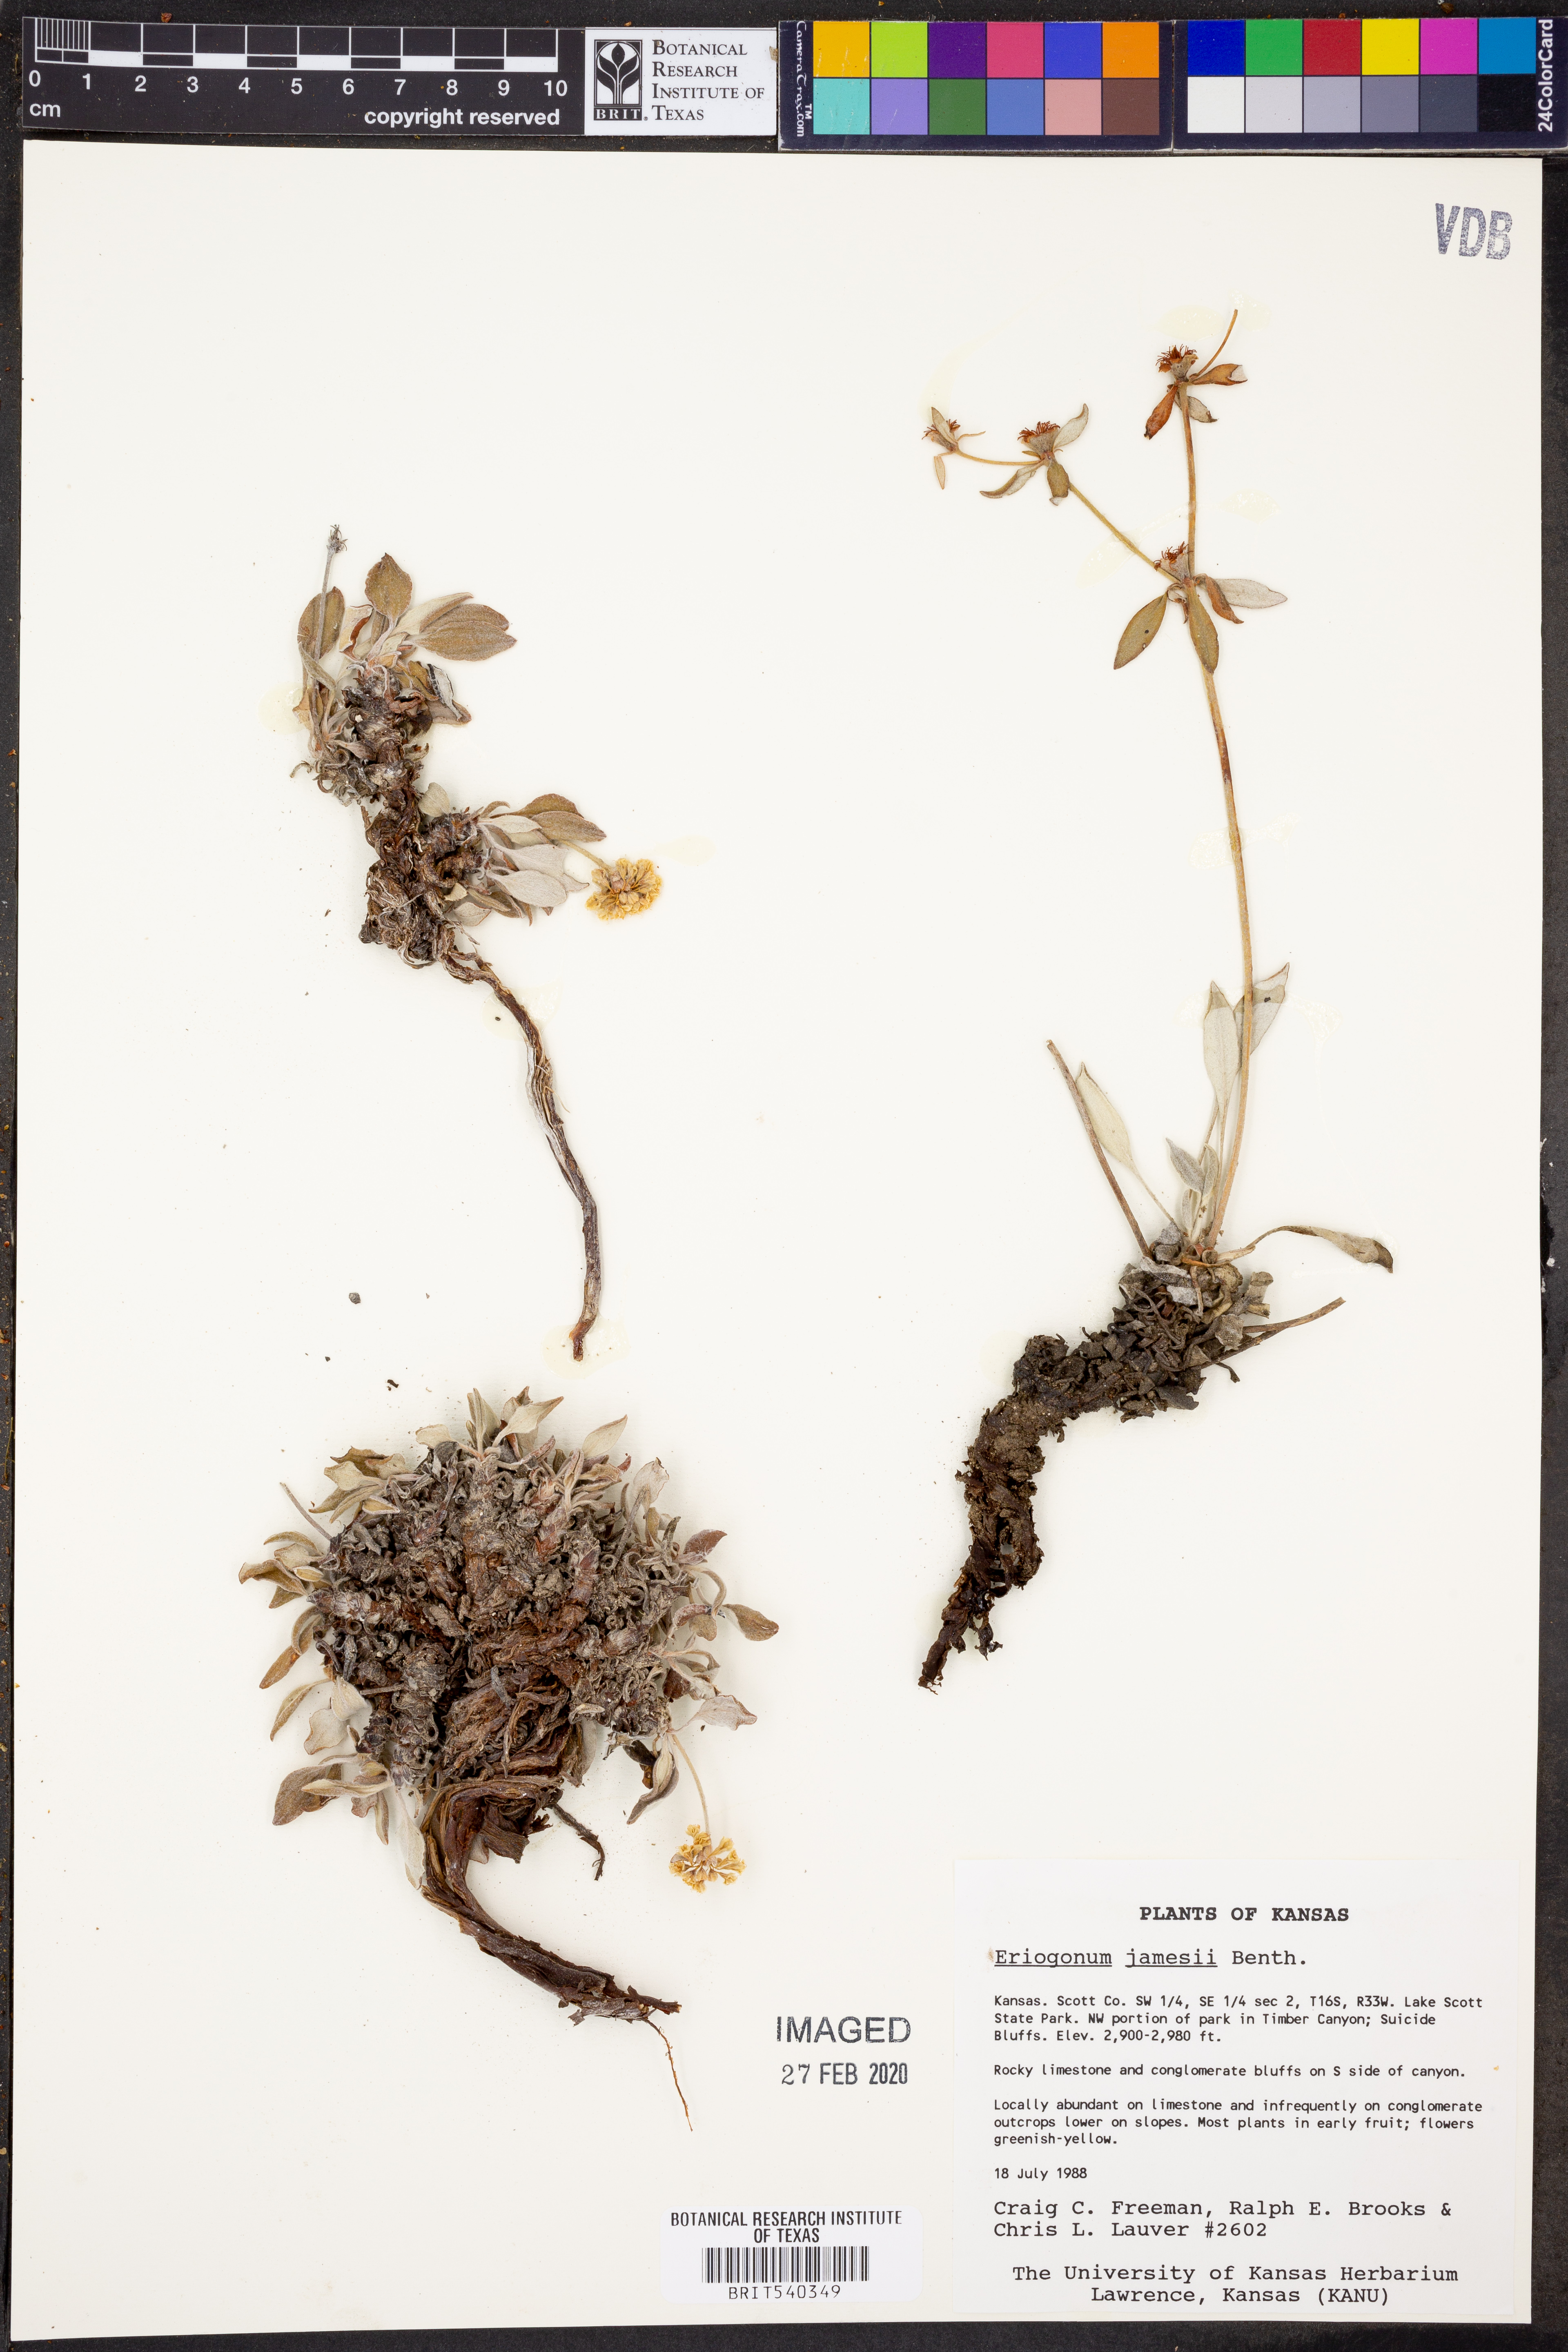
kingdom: Plantae
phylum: Tracheophyta
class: Magnoliopsida
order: Caryophyllales
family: Polygonaceae
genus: Eriogonum
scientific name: Eriogonum jamesii
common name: Antelope-sage
